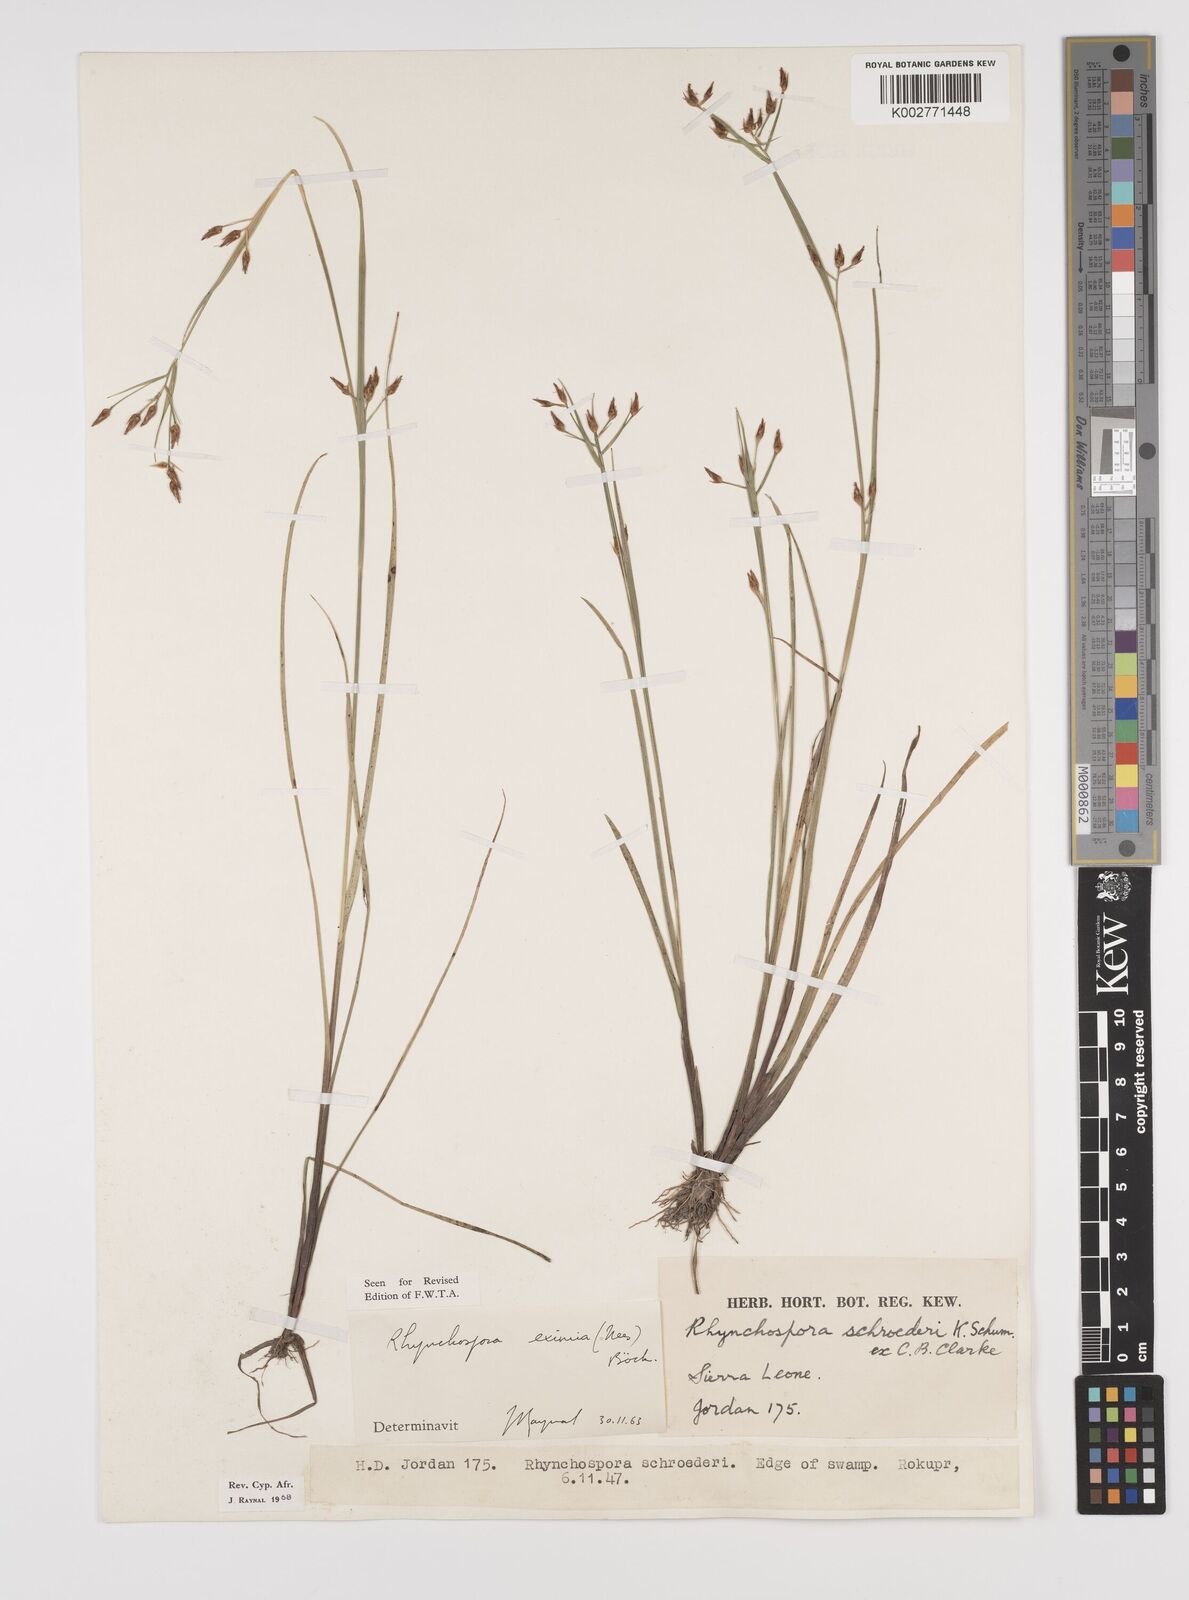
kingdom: Plantae
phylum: Tracheophyta
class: Liliopsida
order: Poales
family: Cyperaceae
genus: Rhynchospora
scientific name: Rhynchospora eximia
